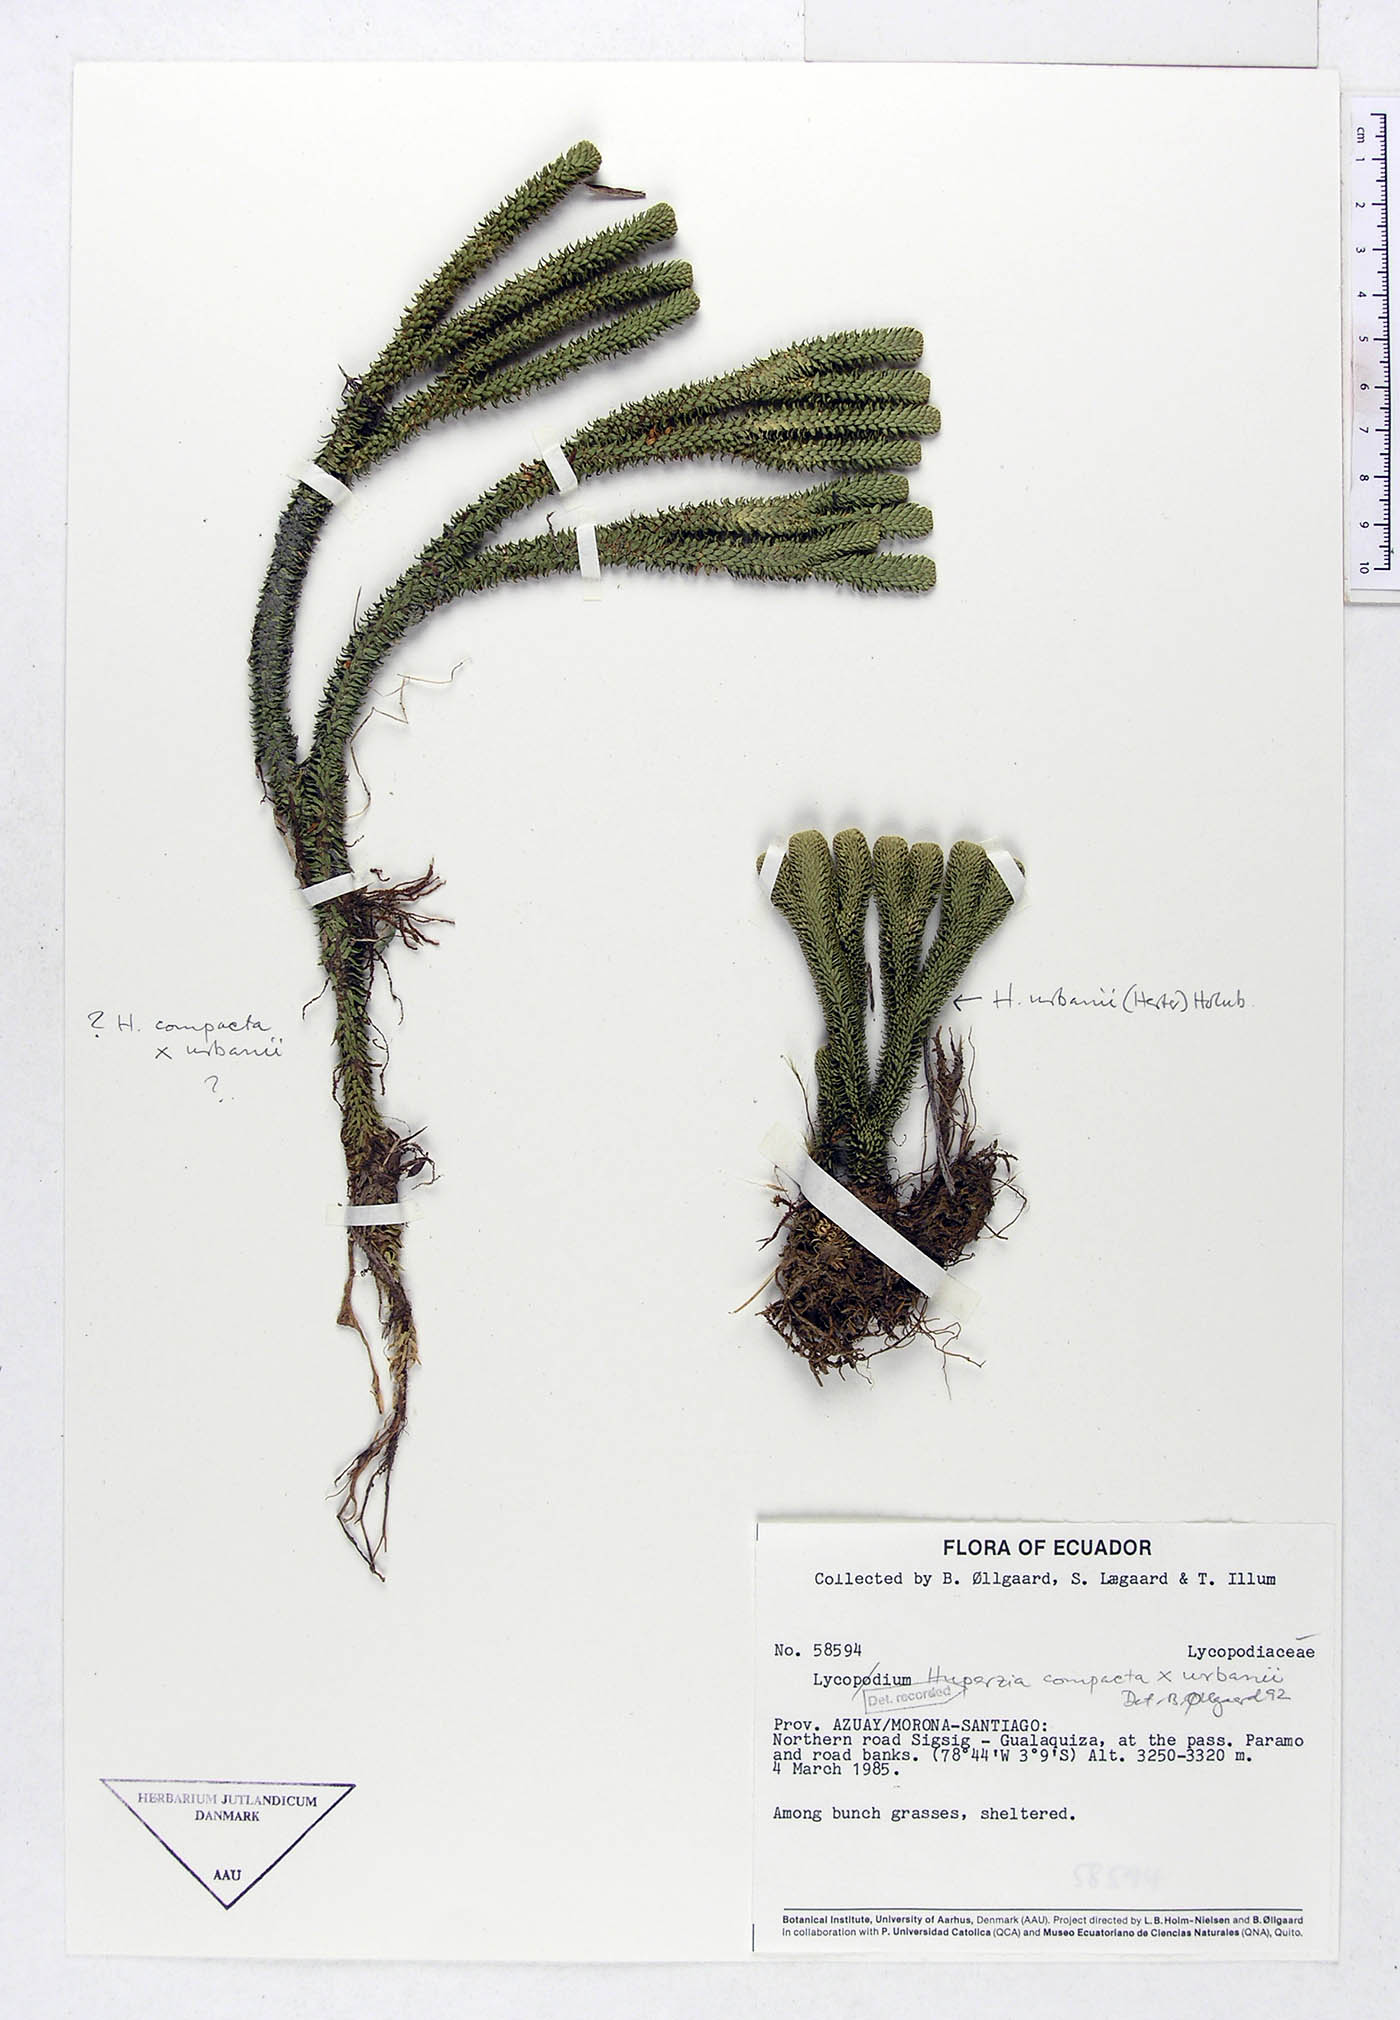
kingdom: Plantae
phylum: Tracheophyta
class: Lycopodiopsida
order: Lycopodiales
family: Lycopodiaceae
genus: Phlegmariurus
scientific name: Phlegmariurus compactus
